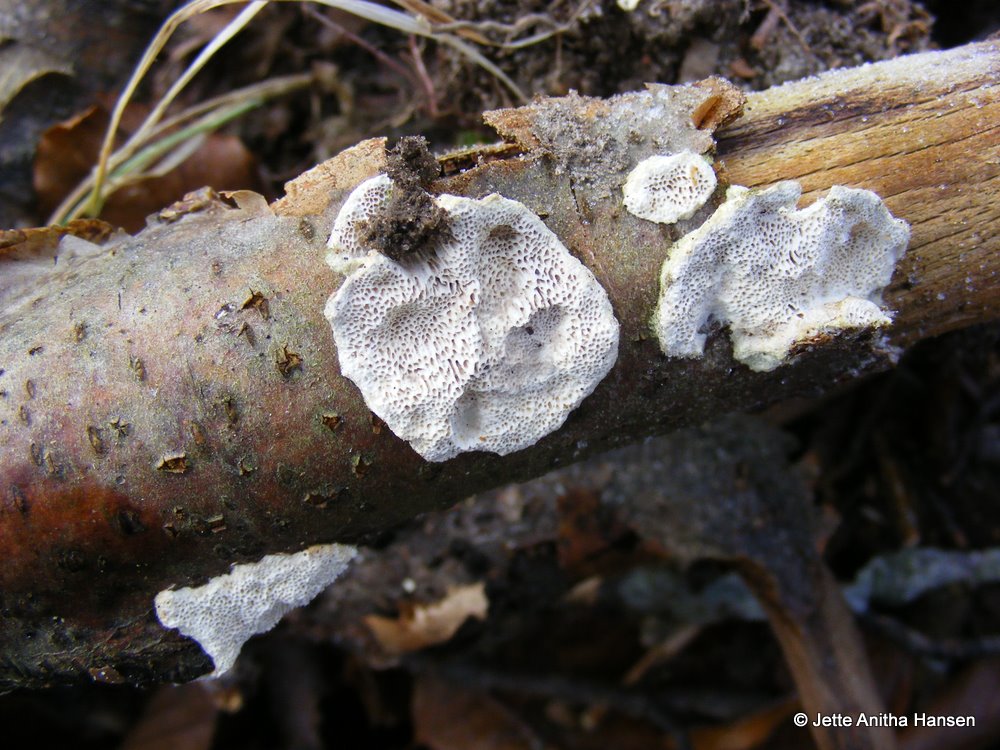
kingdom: Fungi
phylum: Basidiomycota
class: Agaricomycetes
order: Polyporales
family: Polyporaceae
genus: Podofomes
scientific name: Podofomes mollis
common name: blød begporesvamp
